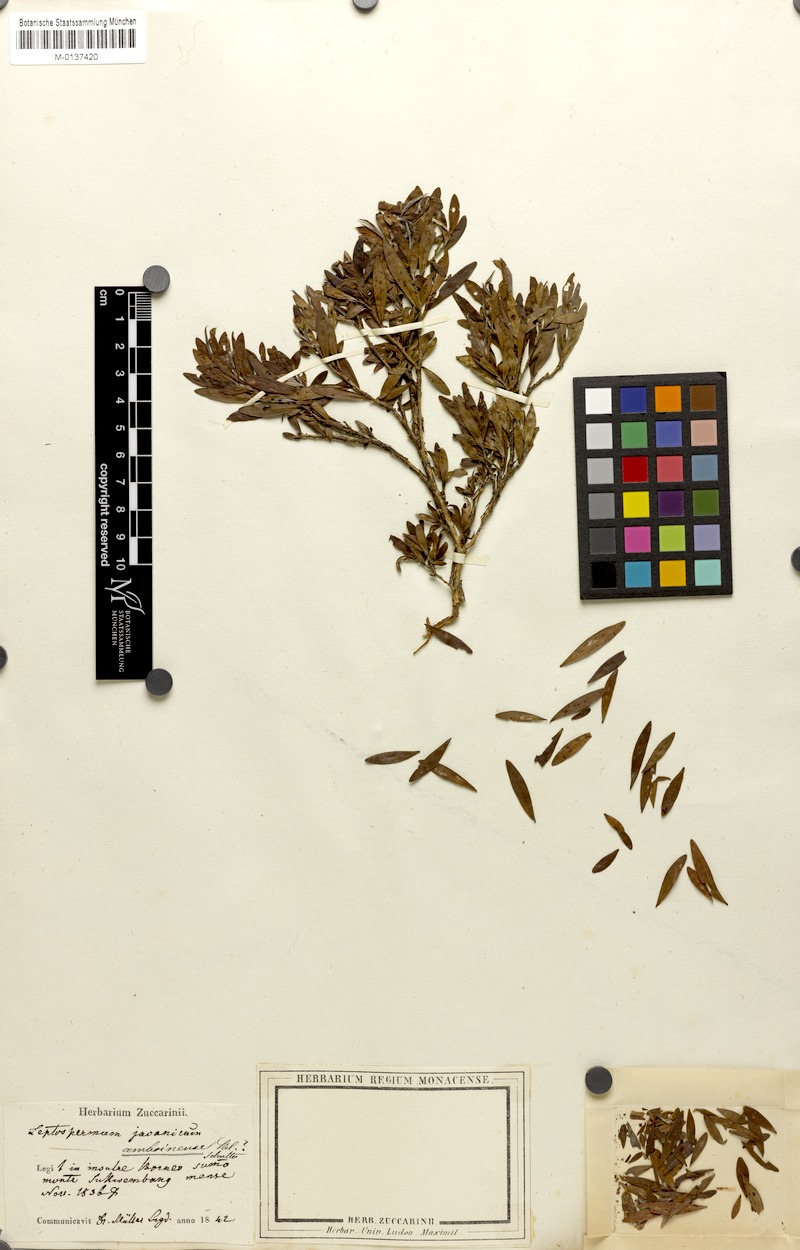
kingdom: Plantae
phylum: Tracheophyta
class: Magnoliopsida
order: Myrtales
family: Myrtaceae
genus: Leptospermum
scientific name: Leptospermum javanicum
